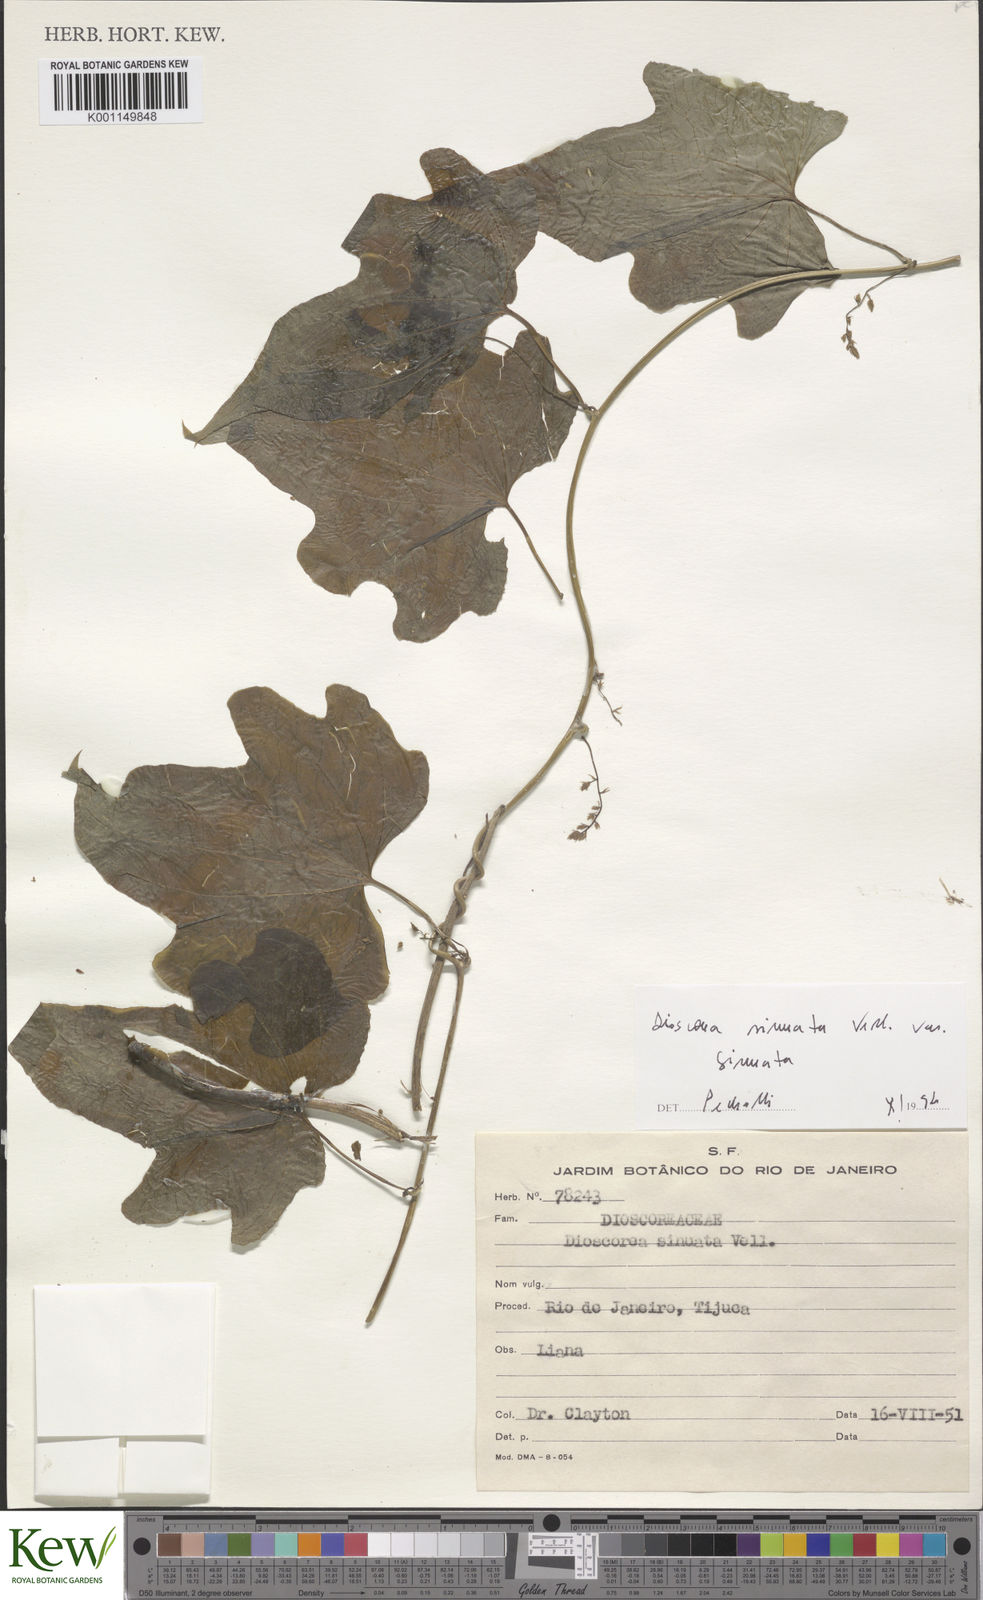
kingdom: Plantae
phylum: Tracheophyta
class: Liliopsida
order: Dioscoreales
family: Dioscoreaceae
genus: Dioscorea
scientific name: Dioscorea sinuata
